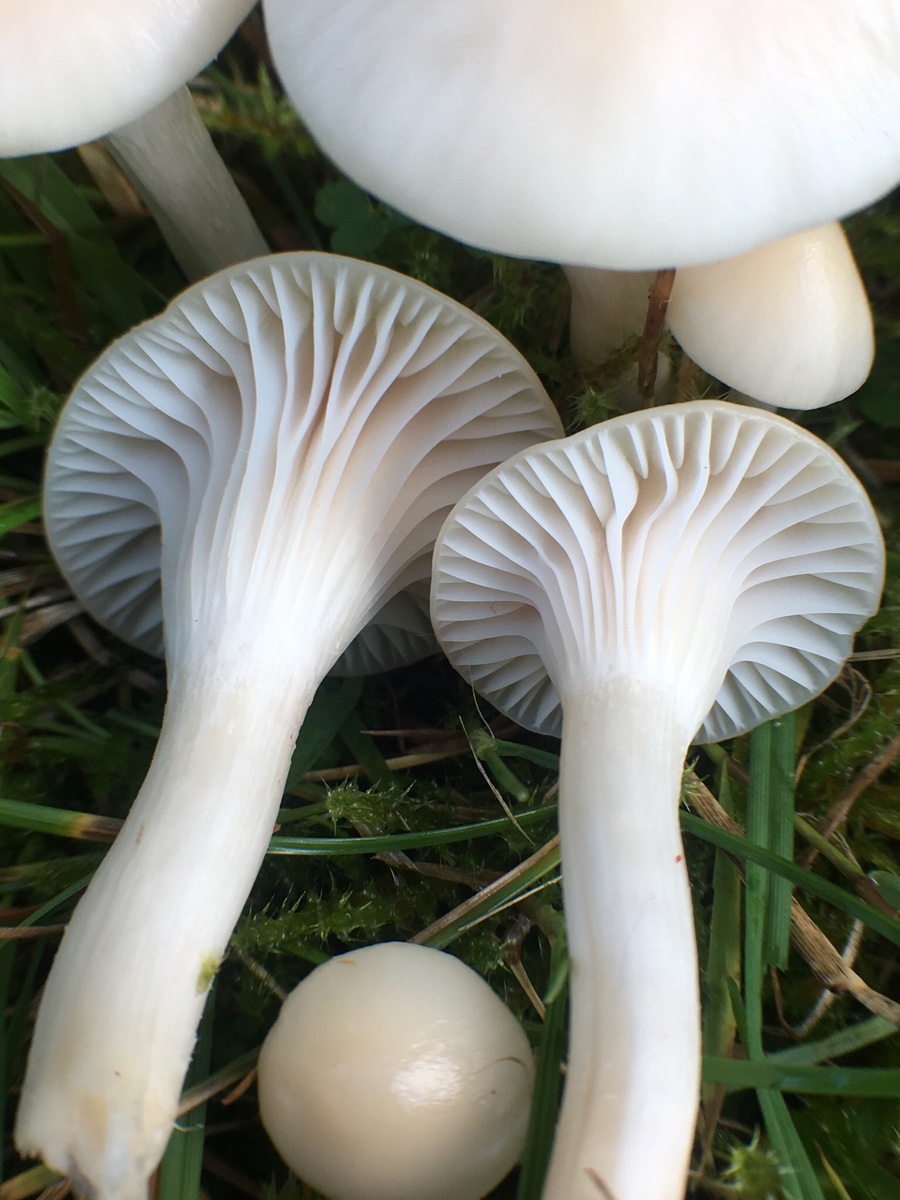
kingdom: Fungi
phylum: Basidiomycota
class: Agaricomycetes
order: Agaricales
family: Hygrophoraceae
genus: Cuphophyllus
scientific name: Cuphophyllus virgineus
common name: snehvid vokshat
